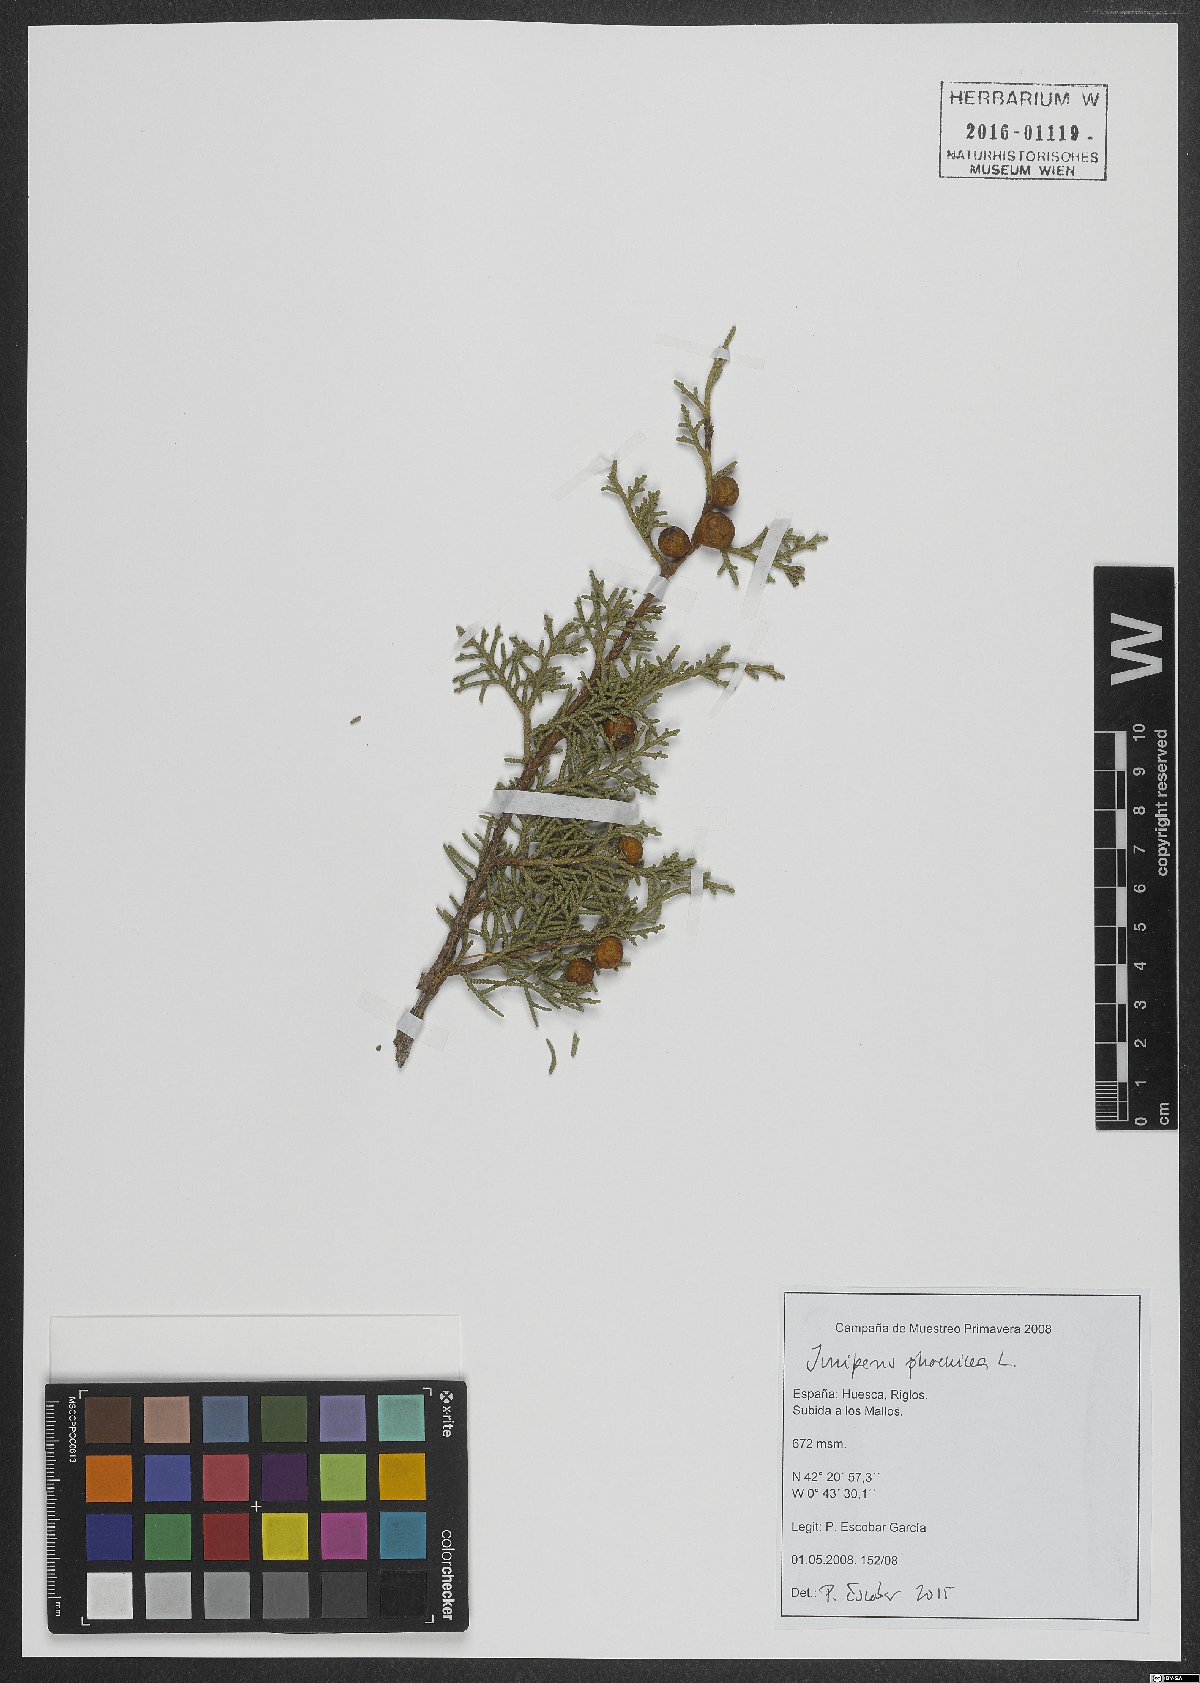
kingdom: Plantae
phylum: Tracheophyta
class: Pinopsida
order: Pinales
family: Cupressaceae
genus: Juniperus
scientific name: Juniperus phoenicea
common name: Phoenician juniper
